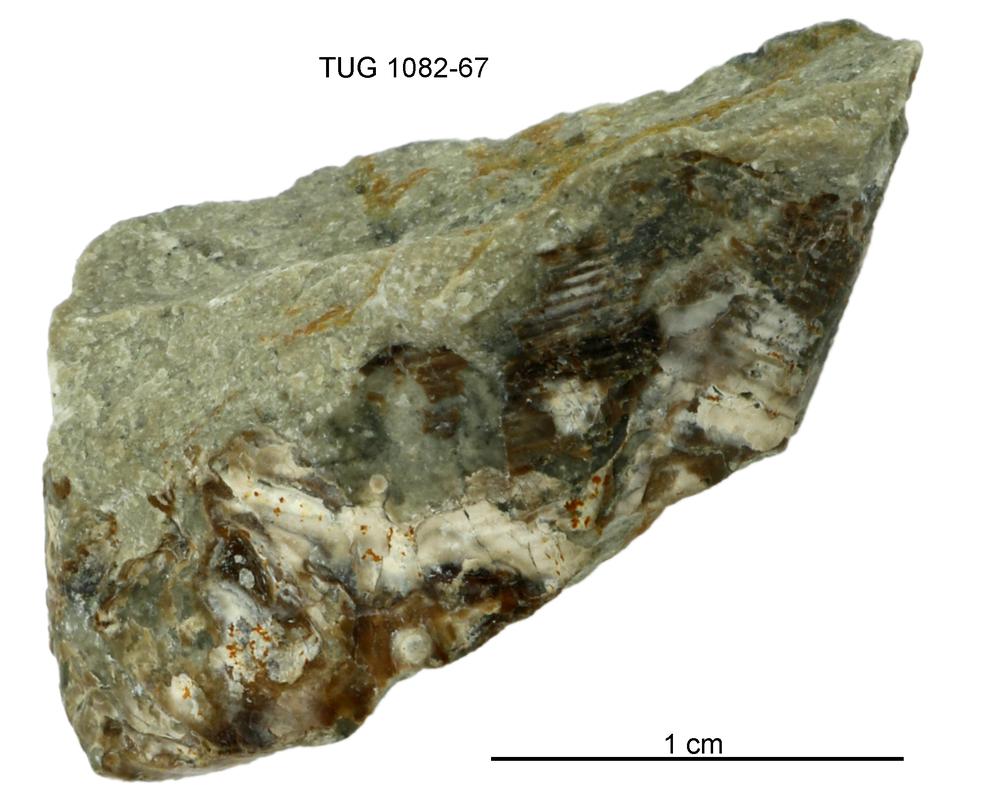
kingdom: Animalia
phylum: Cnidaria
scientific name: Cnidaria
